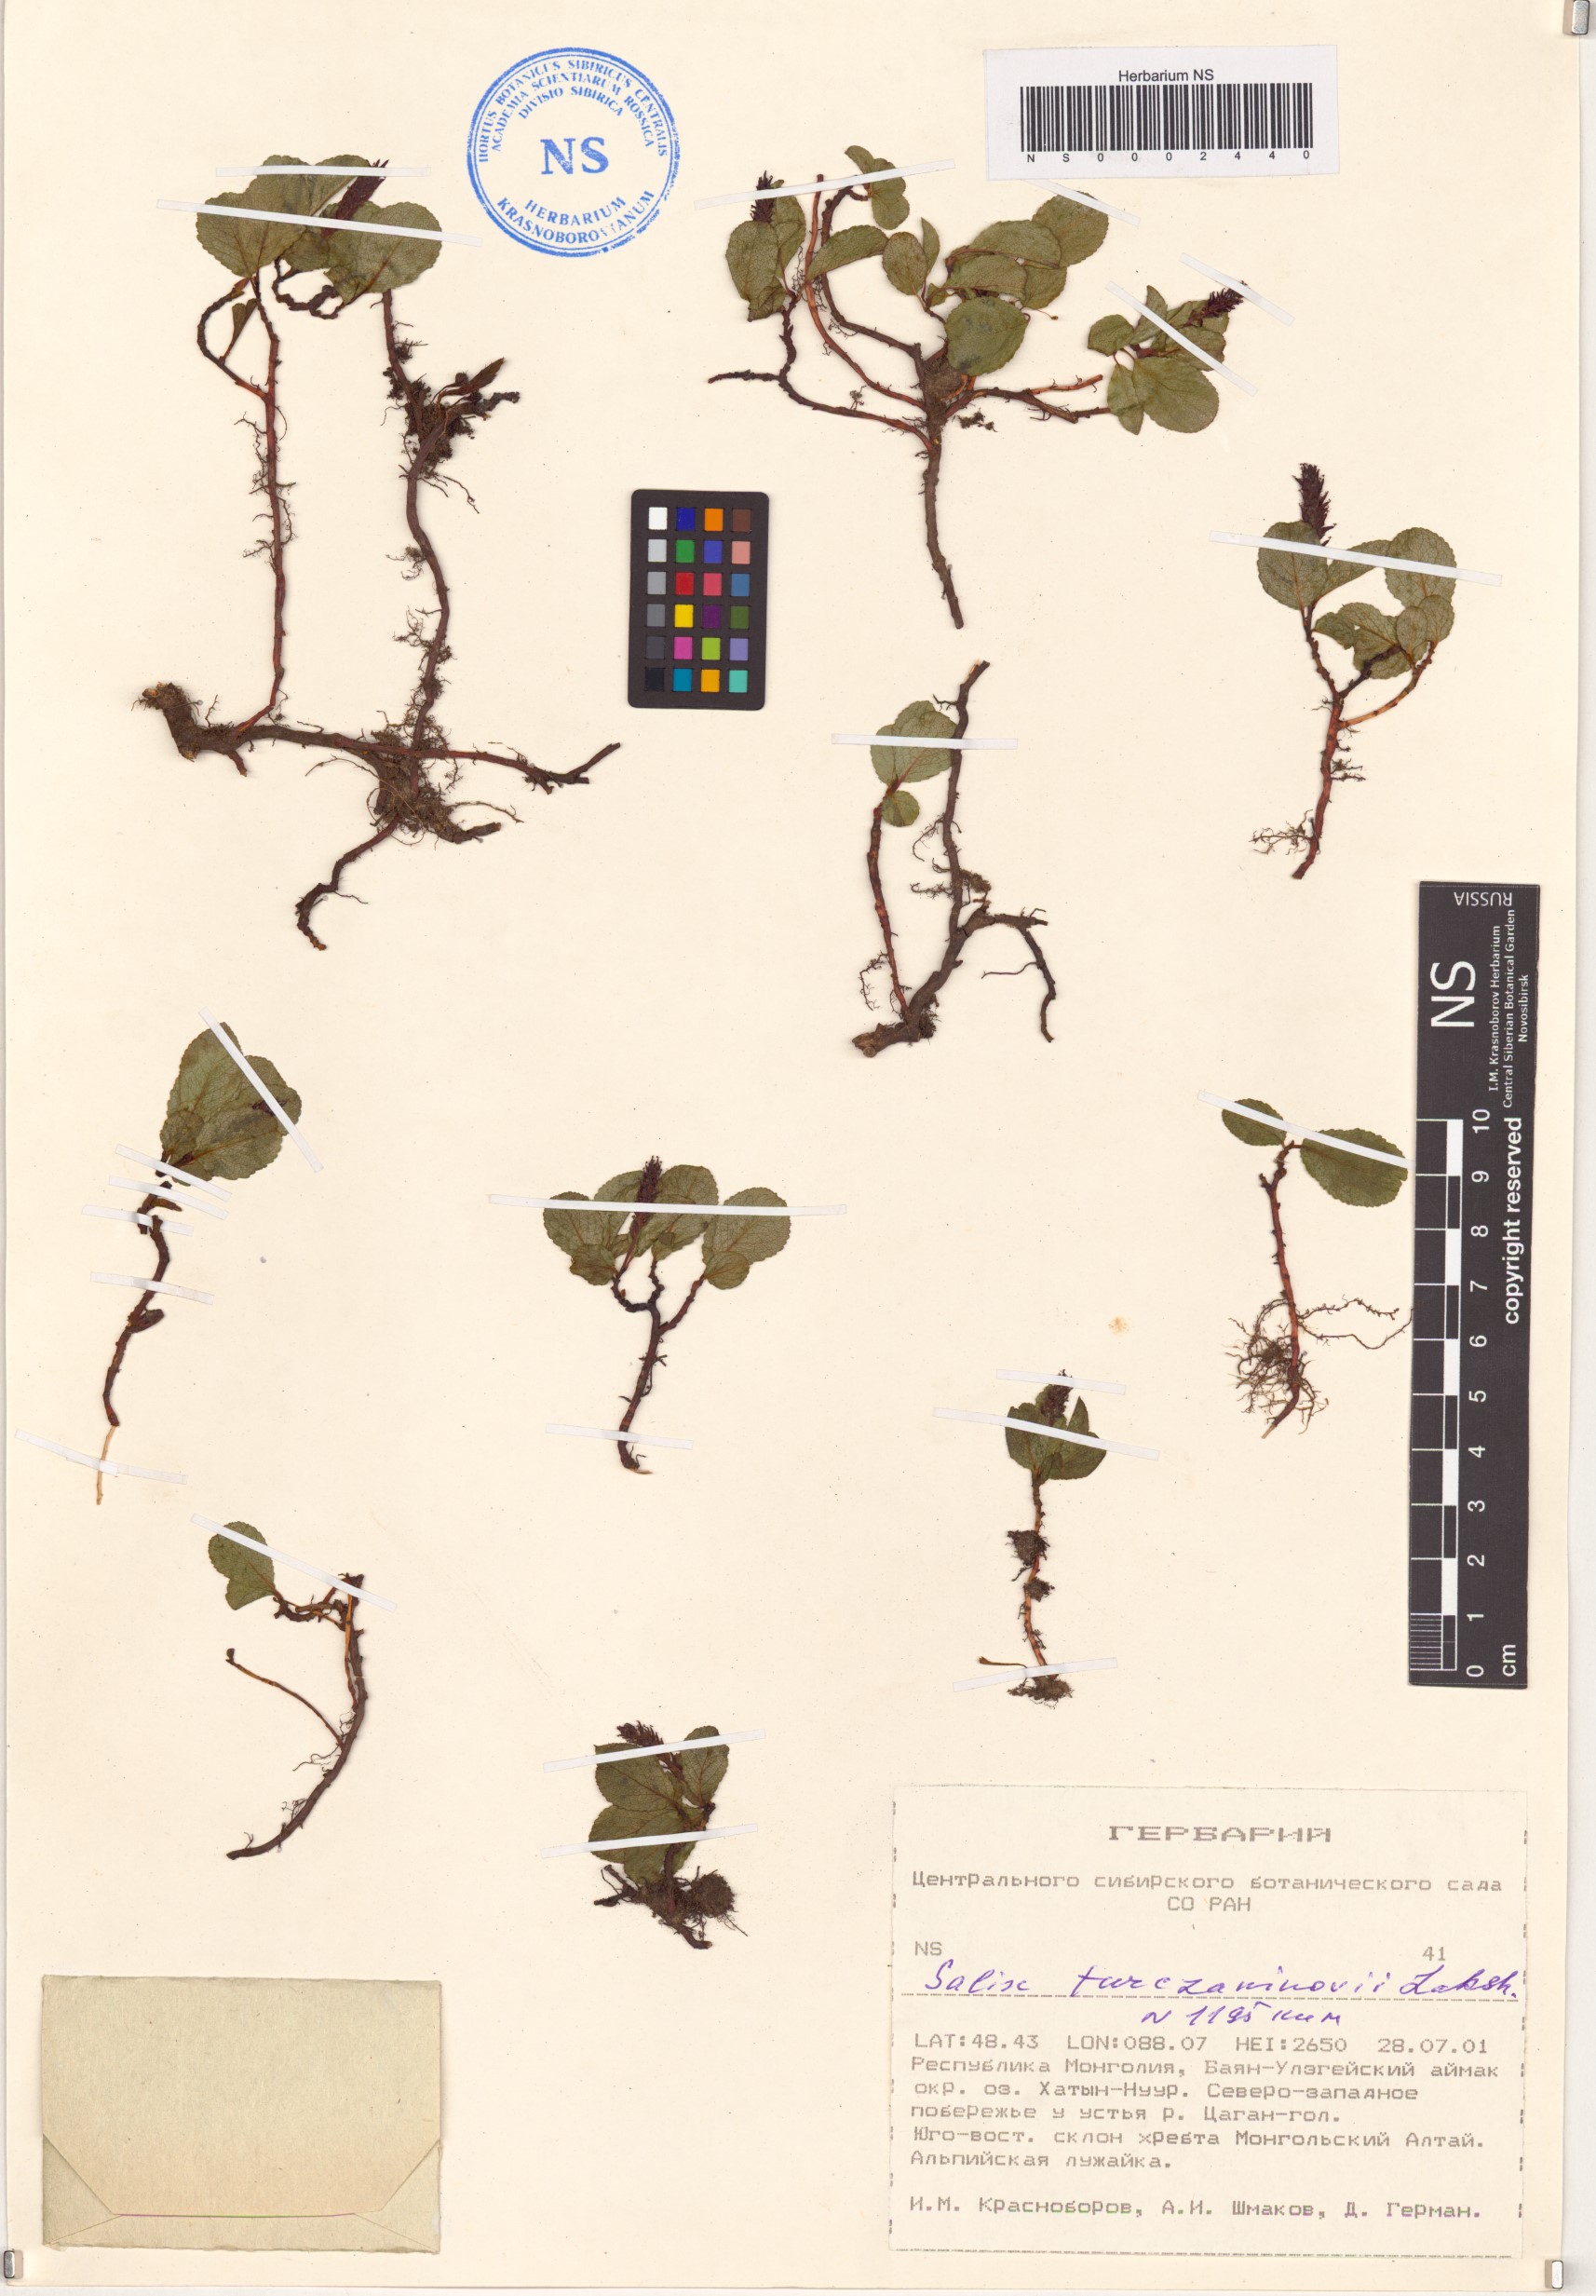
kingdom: Plantae
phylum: Tracheophyta
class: Magnoliopsida
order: Malpighiales
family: Salicaceae
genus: Salix
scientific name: Salix turczaninowii
